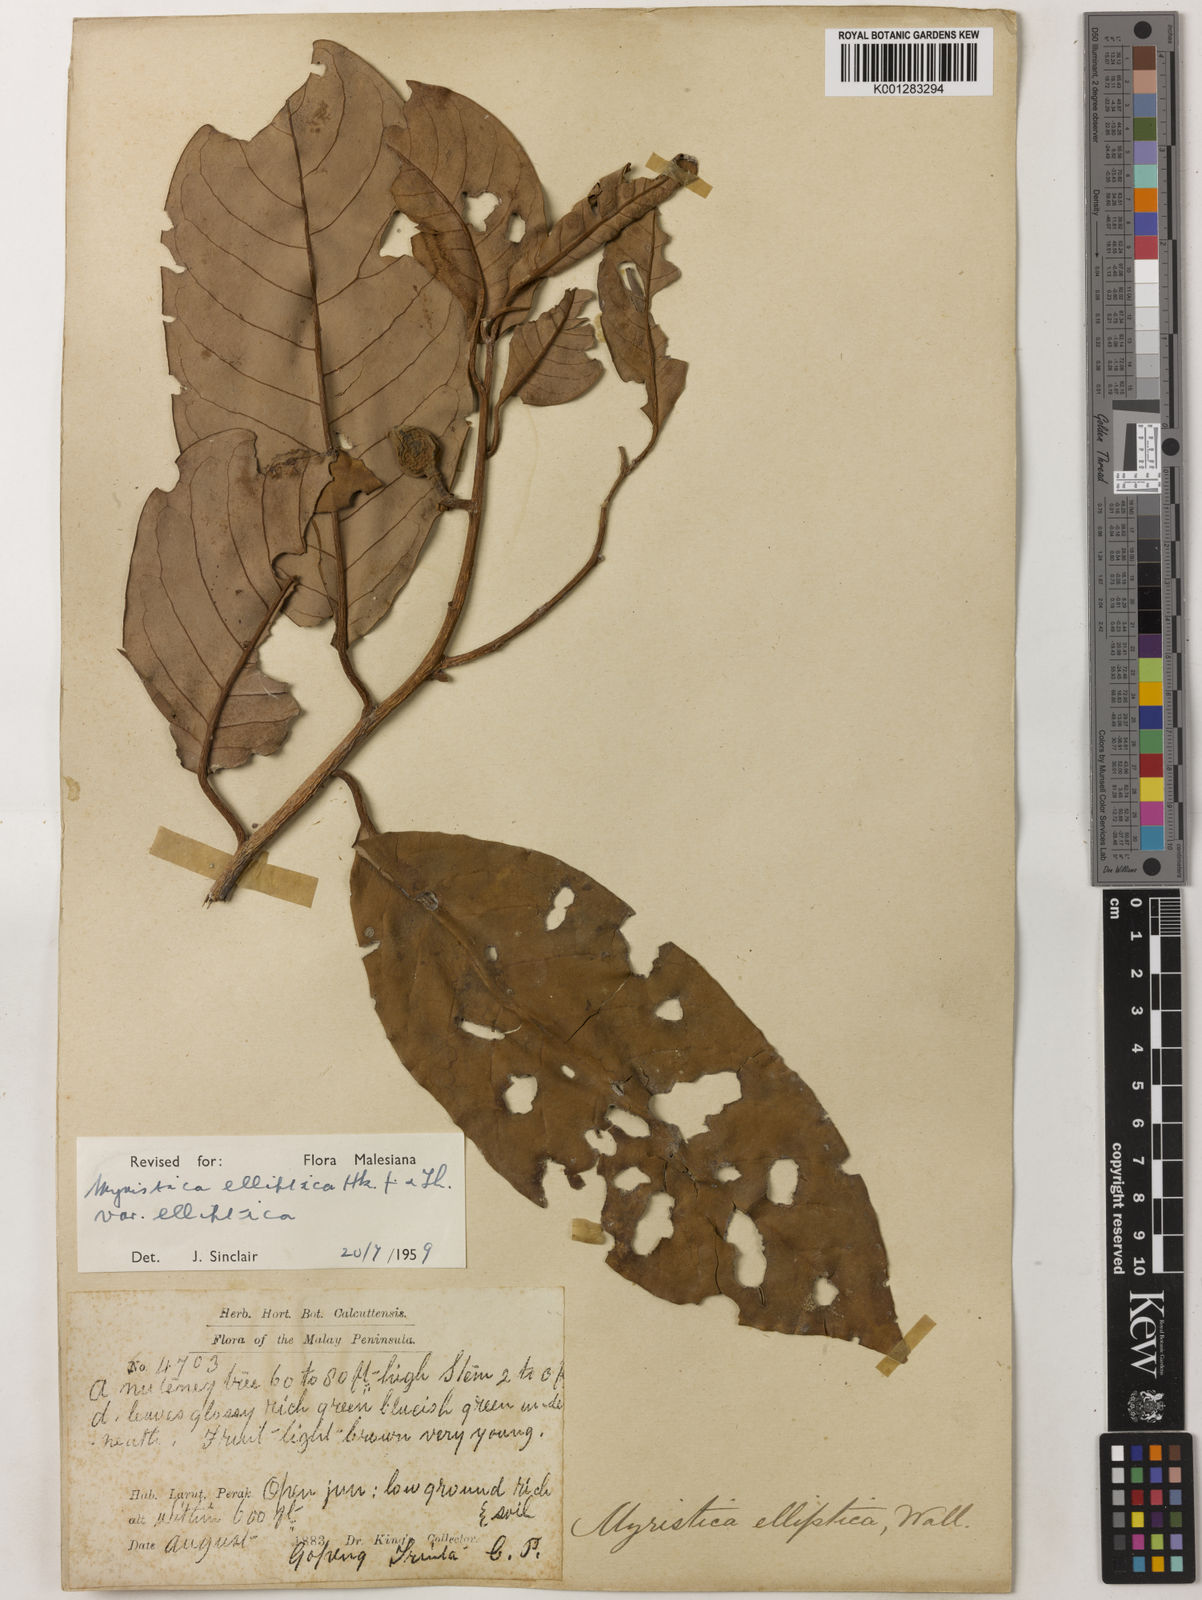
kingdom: Plantae
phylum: Tracheophyta
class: Magnoliopsida
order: Magnoliales
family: Myristicaceae
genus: Myristica
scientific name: Myristica elliptica
